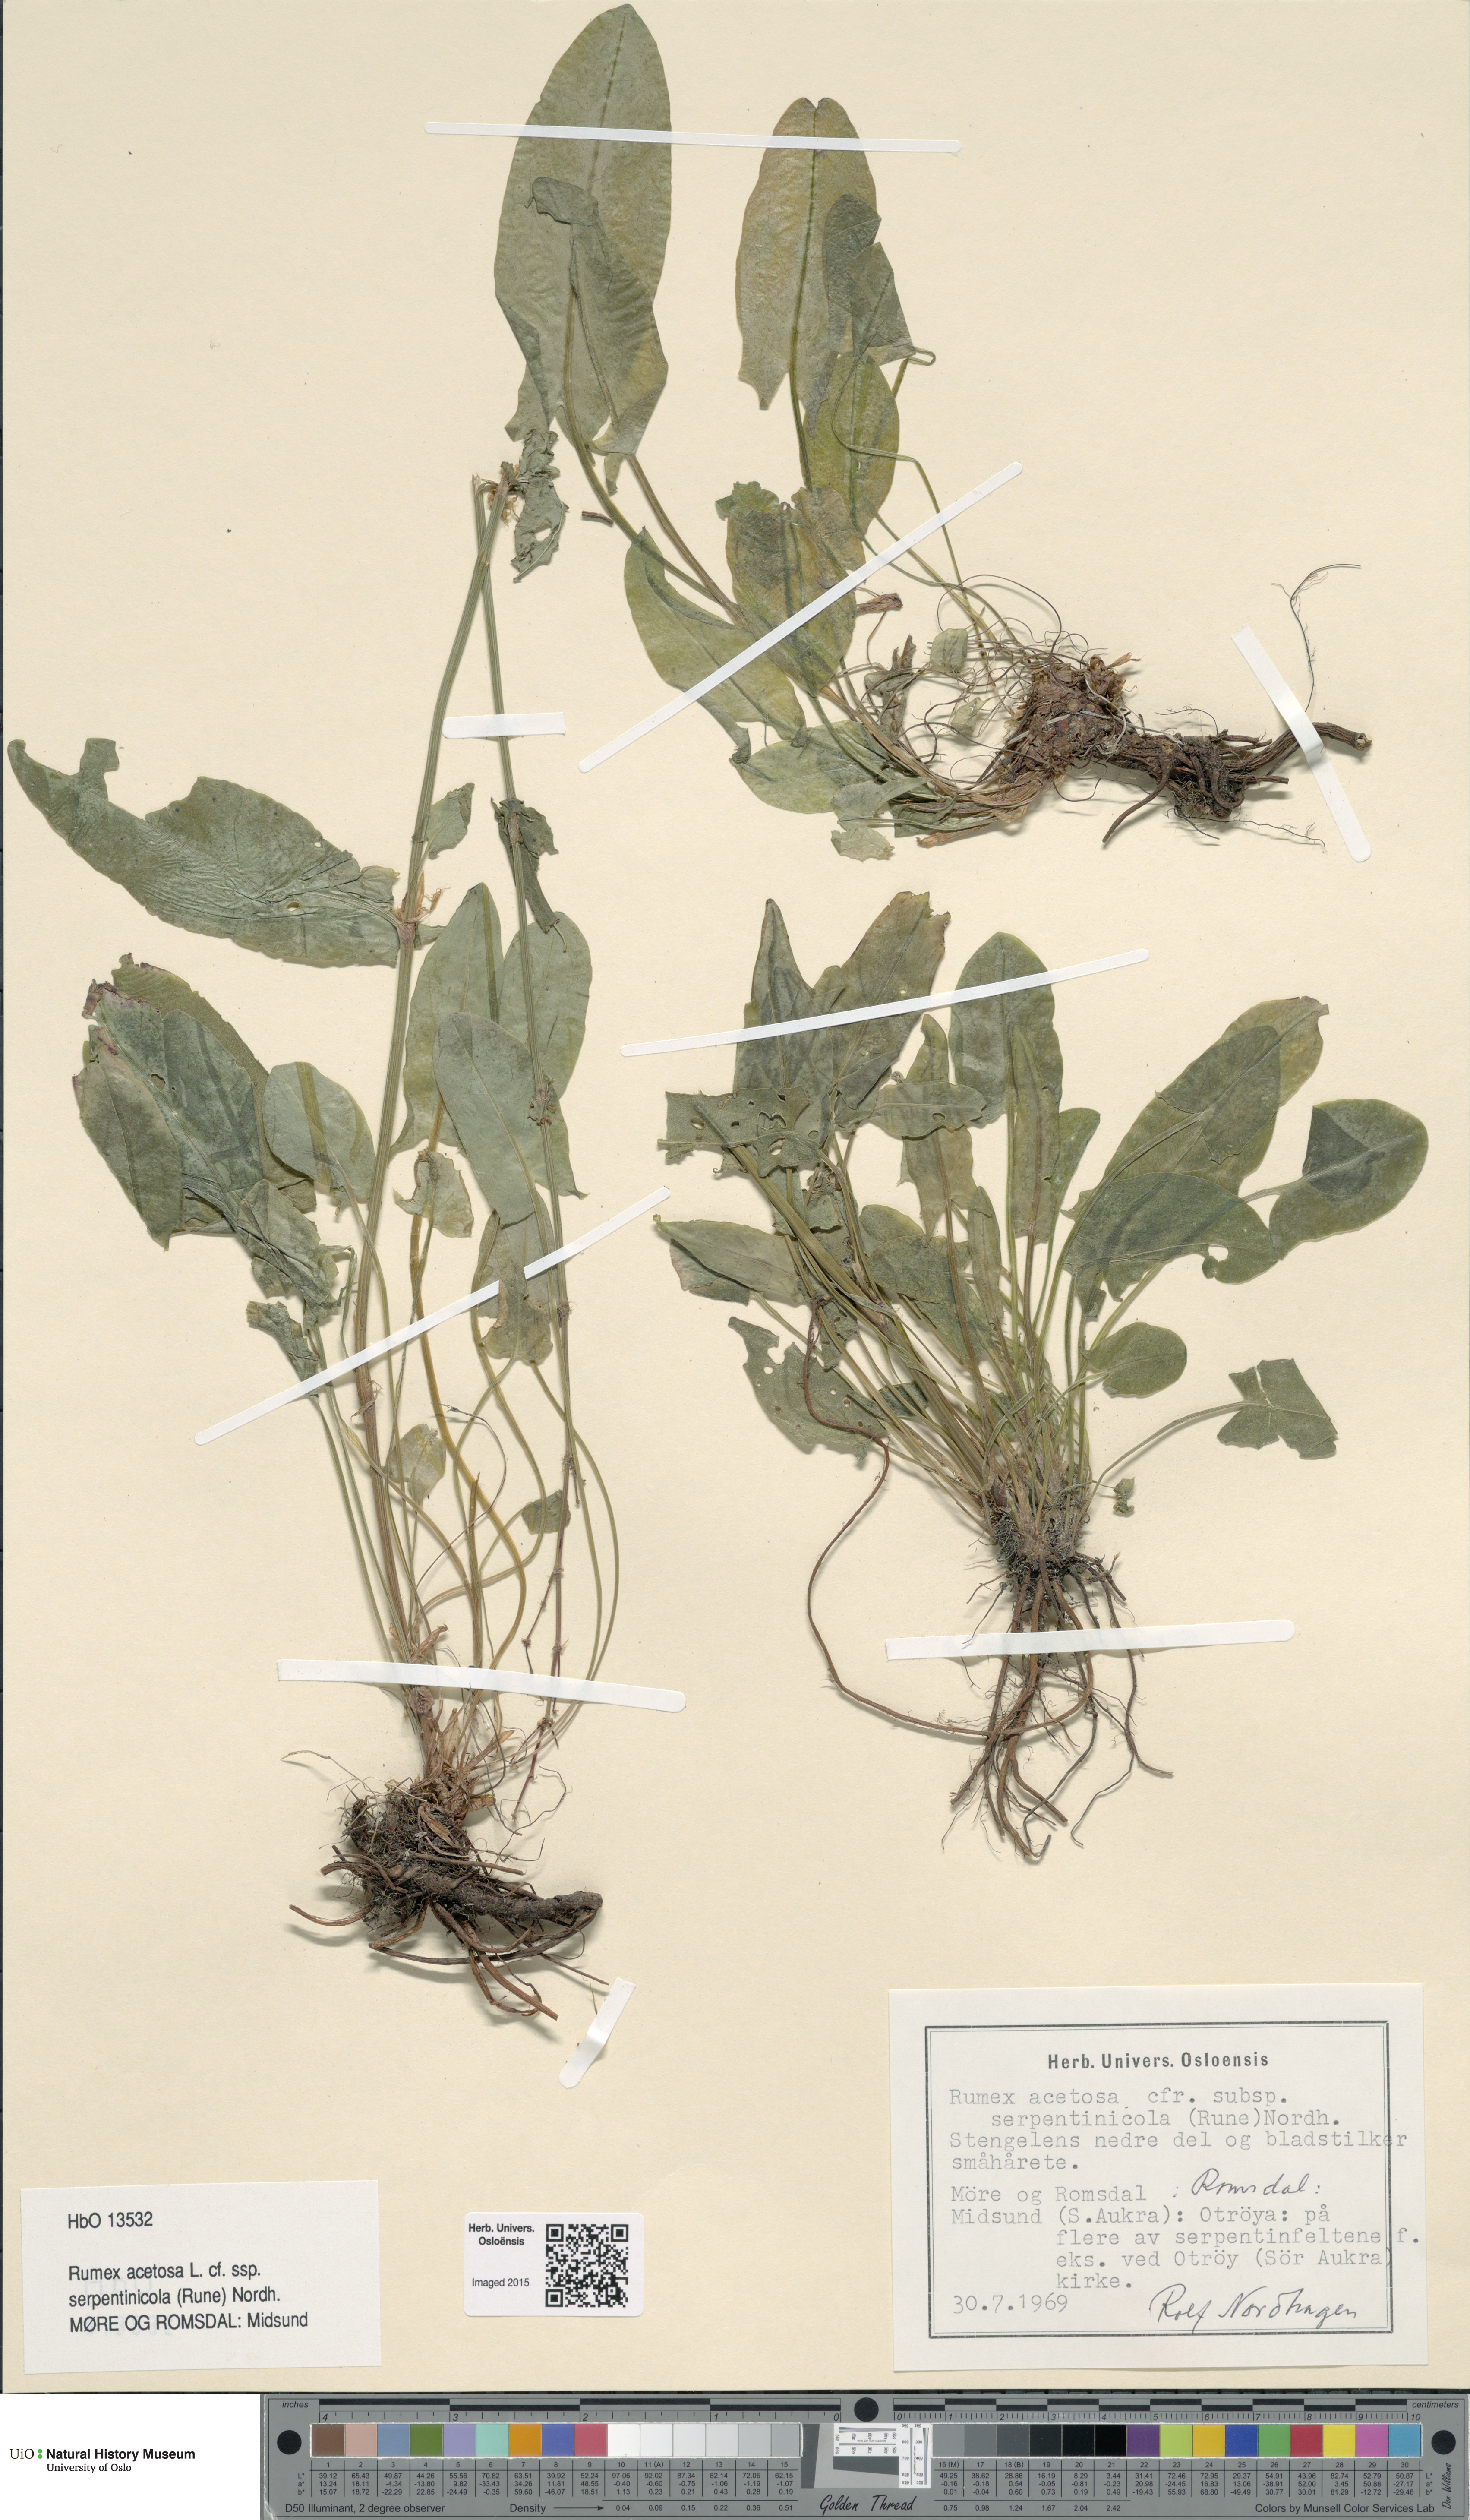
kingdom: Plantae
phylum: Tracheophyta
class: Magnoliopsida
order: Caryophyllales
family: Polygonaceae
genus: Rumex
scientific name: Rumex acetosa
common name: Garden sorrel
